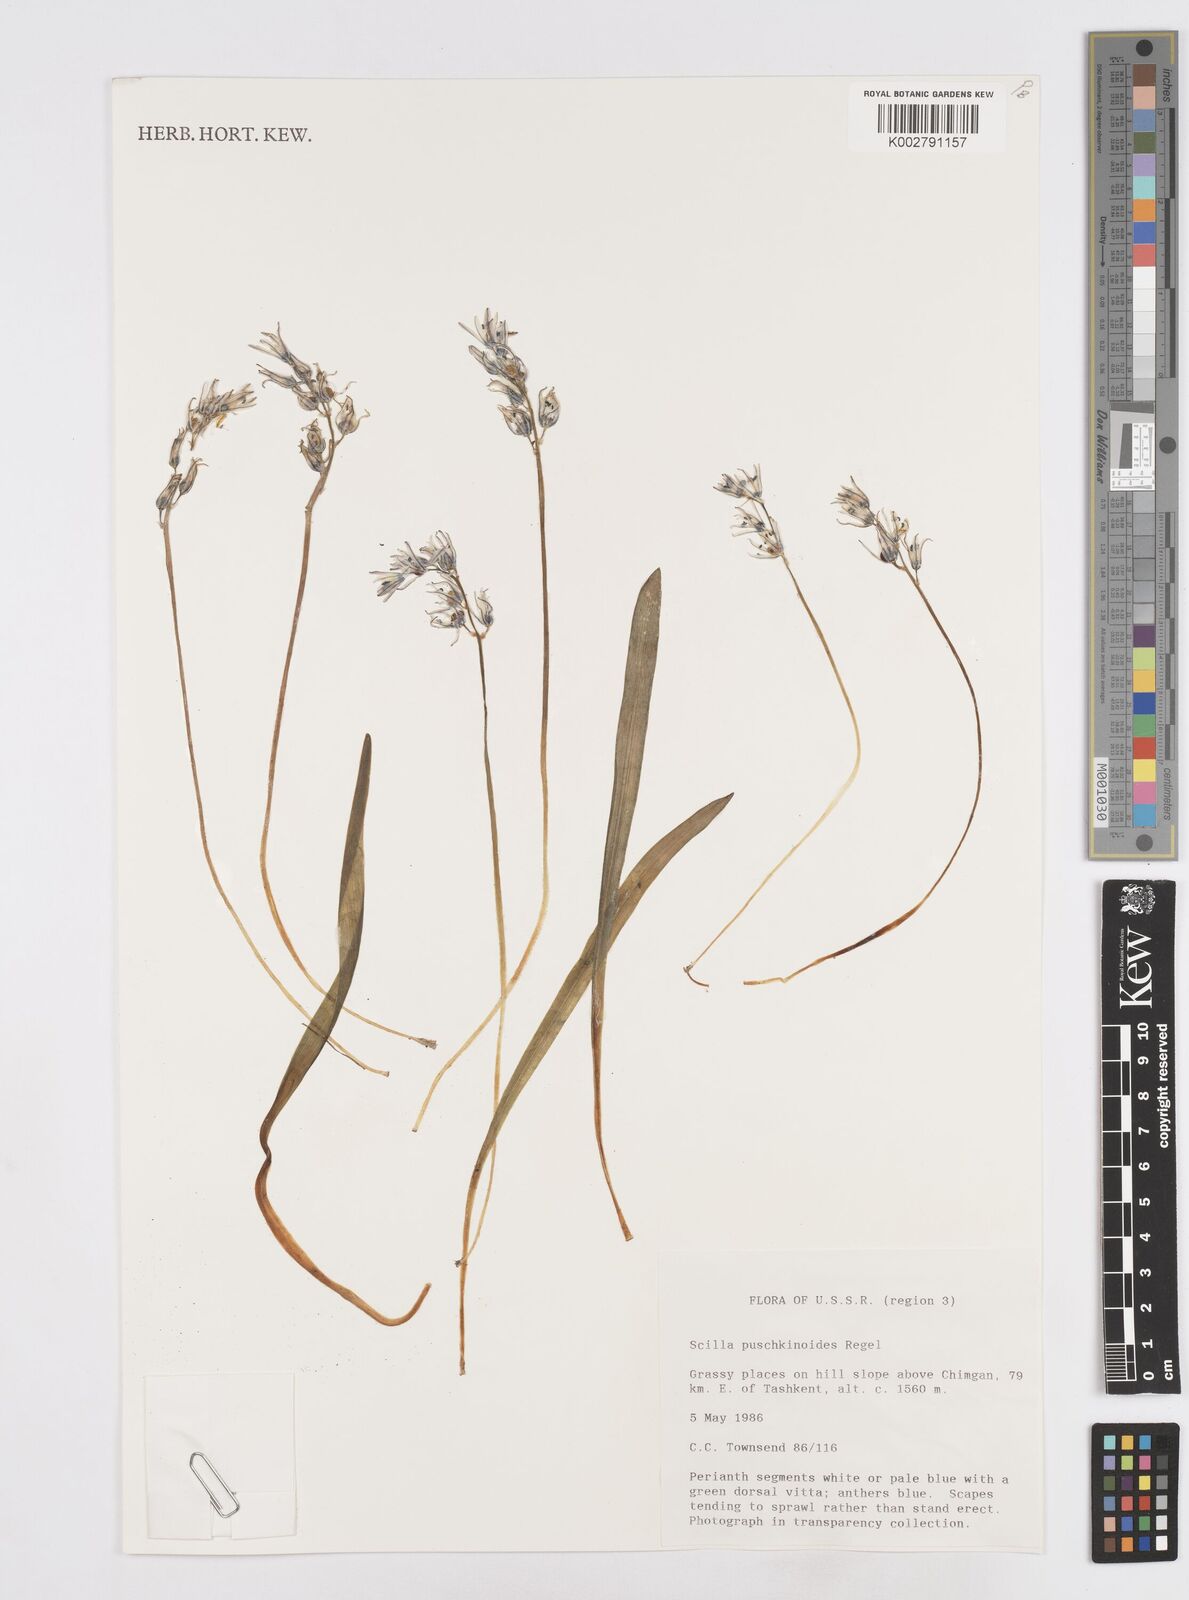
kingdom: Plantae
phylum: Tracheophyta
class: Liliopsida
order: Asparagales
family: Asparagaceae
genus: Fessia
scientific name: Fessia puschkinioides
